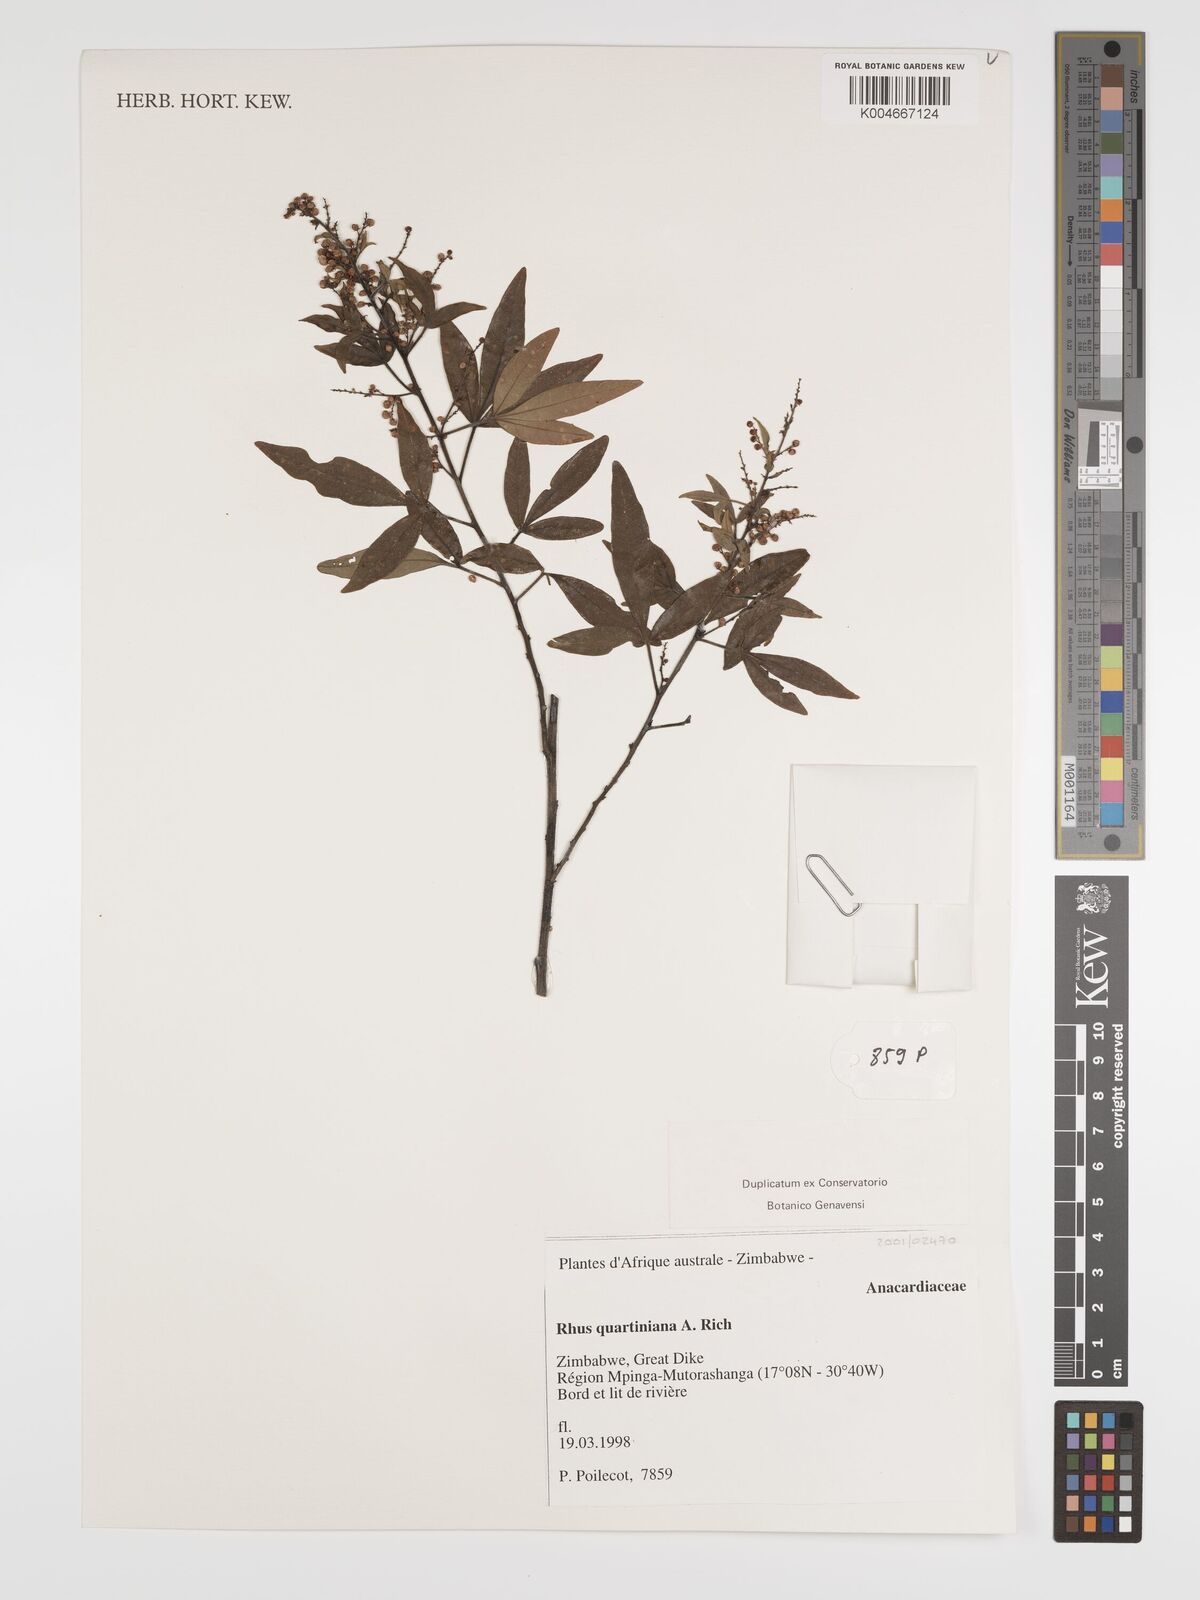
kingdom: Plantae
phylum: Tracheophyta
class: Magnoliopsida
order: Sapindales
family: Anacardiaceae
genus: Searsia
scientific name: Searsia quartiniana
